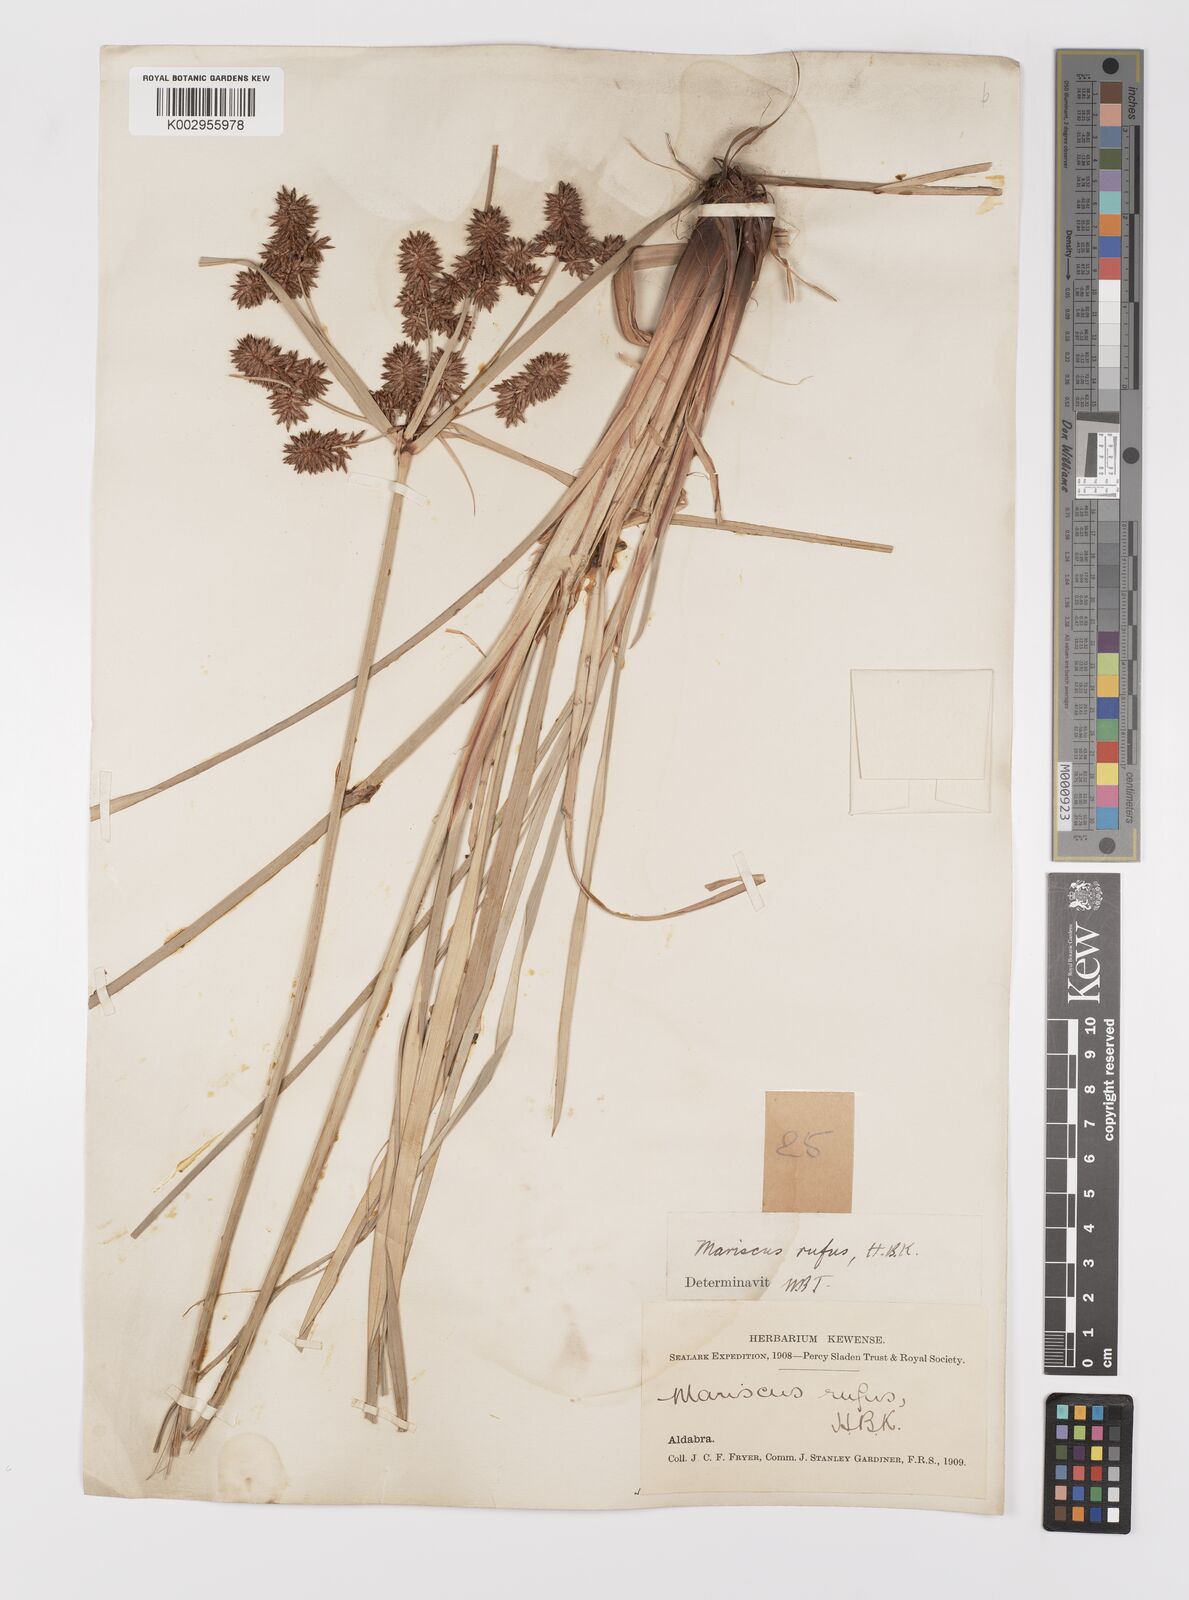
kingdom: Plantae
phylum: Tracheophyta
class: Liliopsida
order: Poales
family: Cyperaceae
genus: Cyperus
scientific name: Cyperus ligularis
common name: Swamp flat sedge
